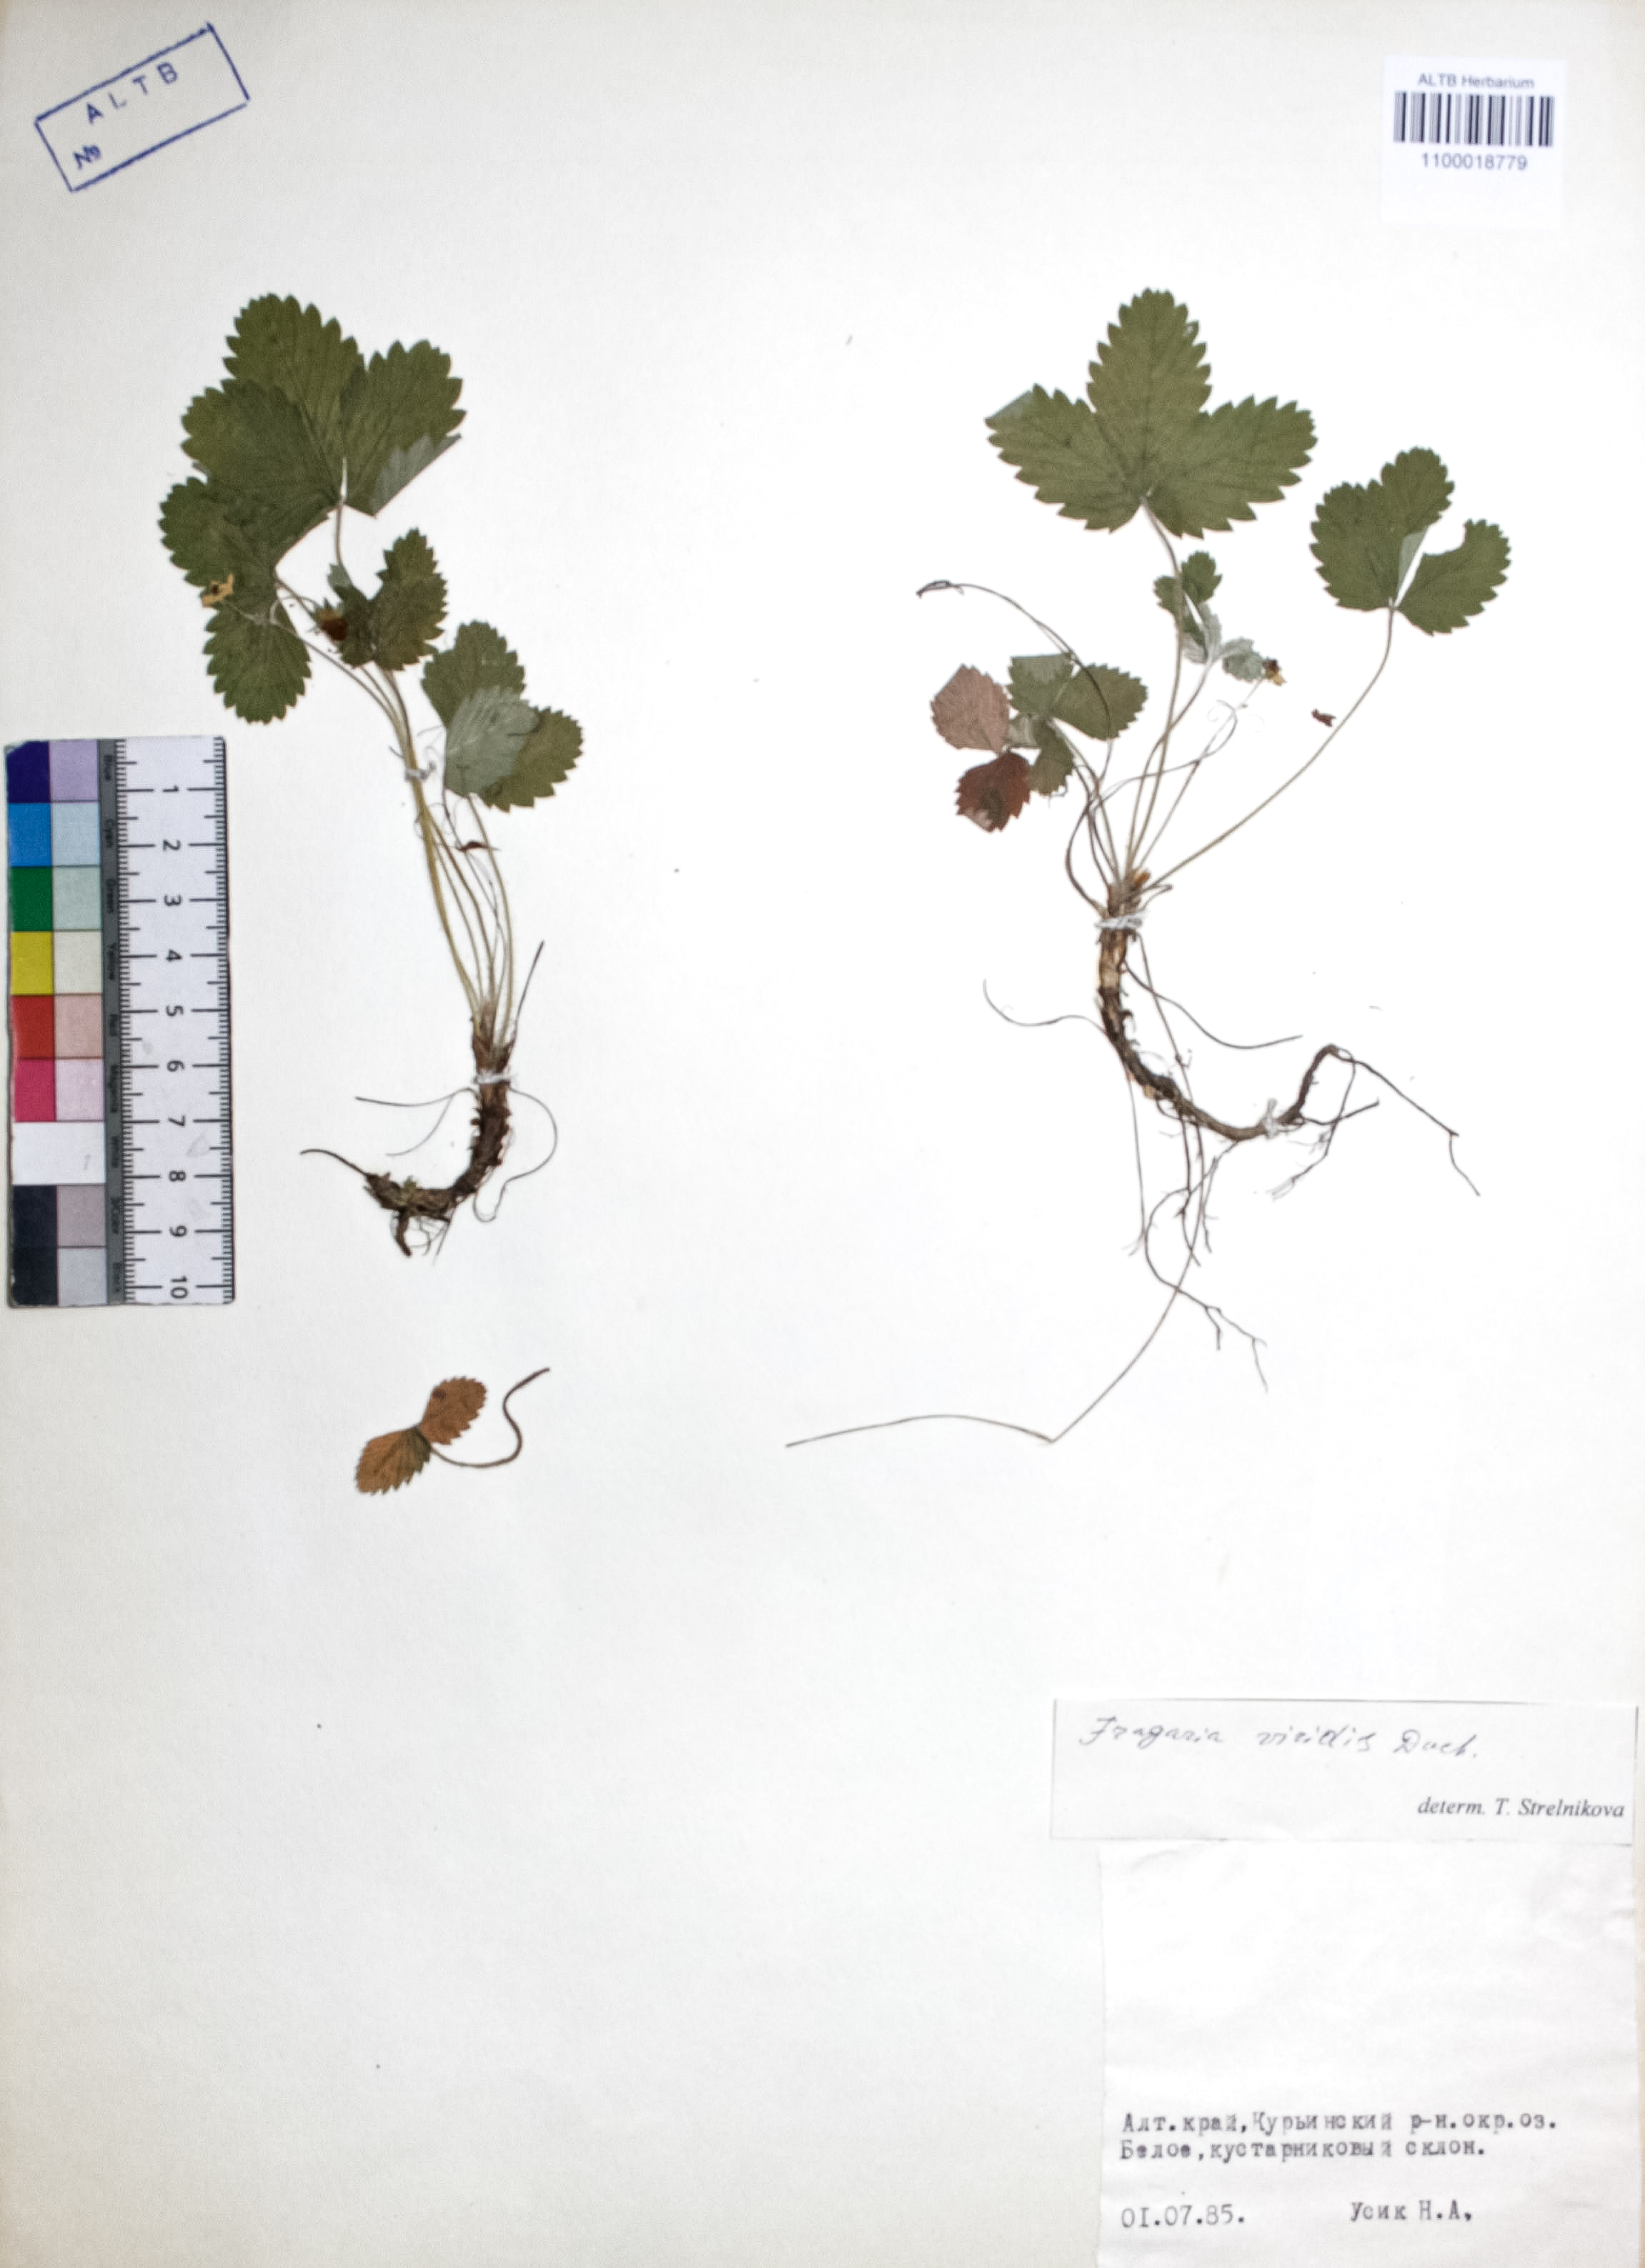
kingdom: Plantae
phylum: Tracheophyta
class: Magnoliopsida
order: Rosales
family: Rosaceae
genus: Fragaria
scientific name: Fragaria viridis
